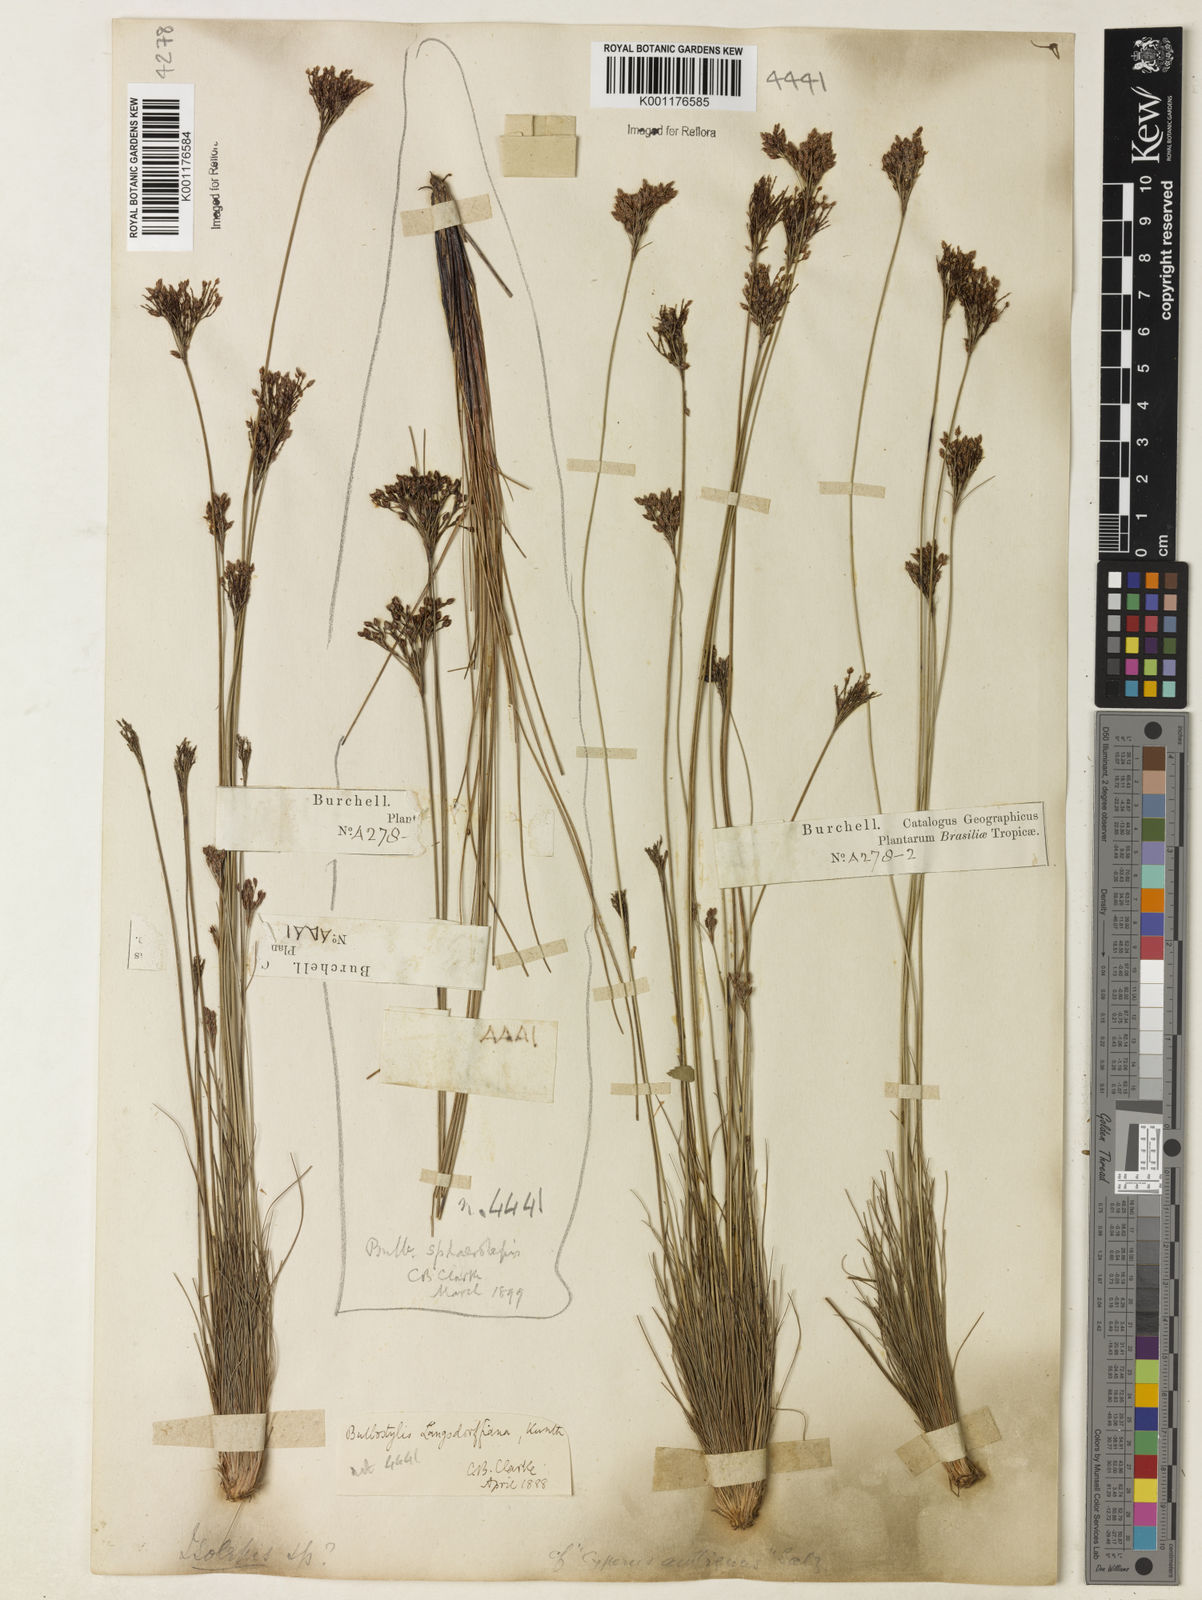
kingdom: Plantae
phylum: Tracheophyta
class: Liliopsida
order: Poales
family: Cyperaceae
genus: Bulbostylis
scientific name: Bulbostylis scabra
